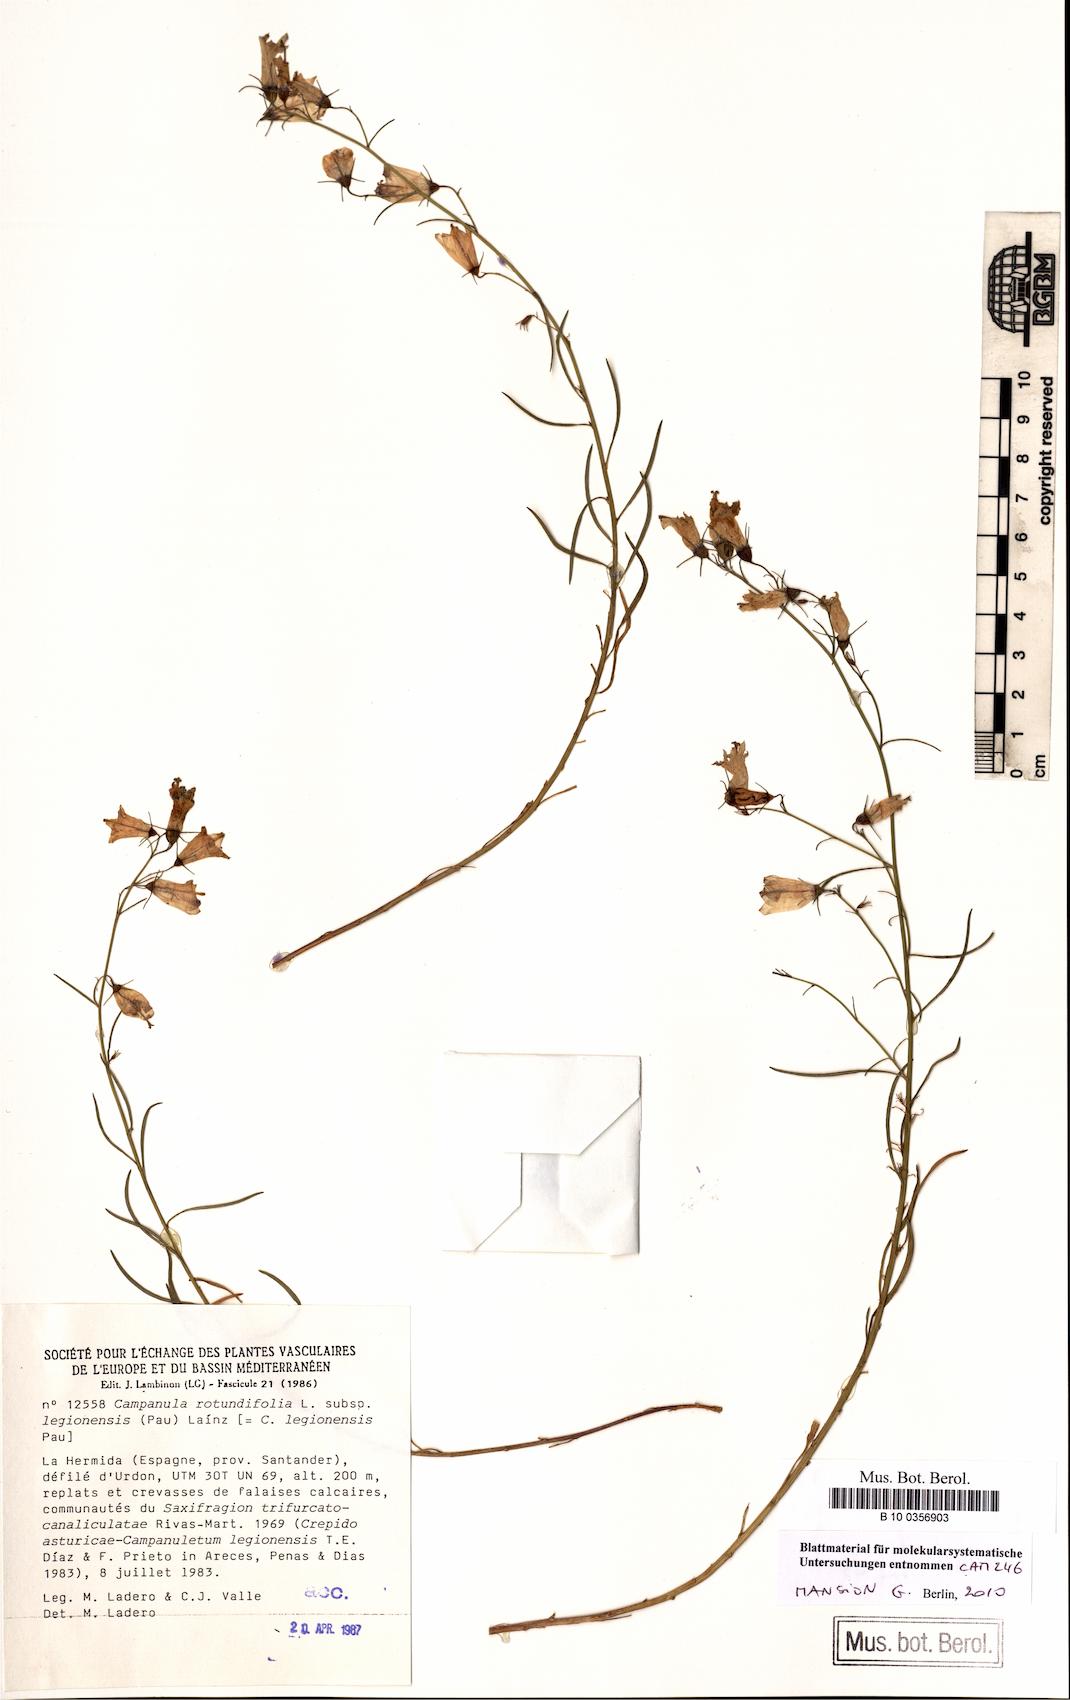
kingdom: Plantae
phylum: Tracheophyta
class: Magnoliopsida
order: Asterales
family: Campanulaceae
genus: Campanula
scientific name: Campanula rotundifolia
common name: Harebell
